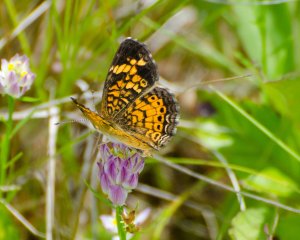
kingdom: Animalia
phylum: Arthropoda
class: Insecta
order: Lepidoptera
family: Nymphalidae
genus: Phyciodes
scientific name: Phyciodes tharos
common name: Pearl Crescent
